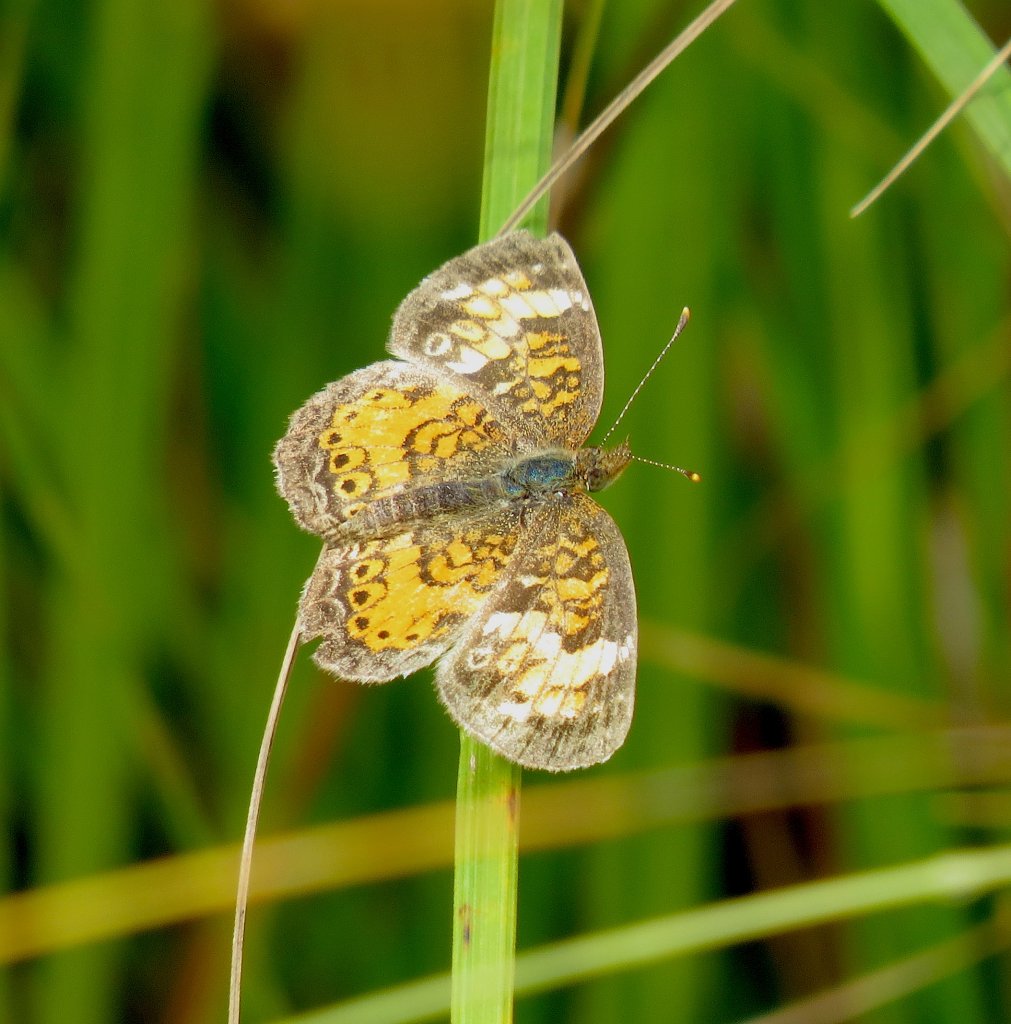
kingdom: Animalia
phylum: Arthropoda
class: Insecta
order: Lepidoptera
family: Nymphalidae
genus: Phyciodes
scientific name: Phyciodes tharos
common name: Pearl Crescent
